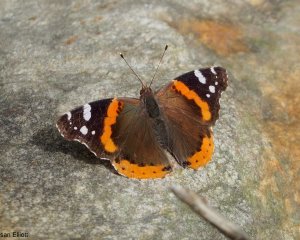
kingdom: Animalia
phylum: Arthropoda
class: Insecta
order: Lepidoptera
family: Nymphalidae
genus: Vanessa
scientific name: Vanessa atalanta
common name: Red Admiral
